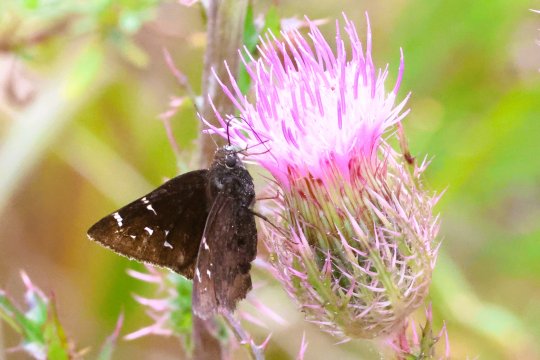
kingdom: Animalia
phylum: Arthropoda
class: Insecta
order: Lepidoptera
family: Hesperiidae
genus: Autochton
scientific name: Autochton
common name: Northern Cloudywing
